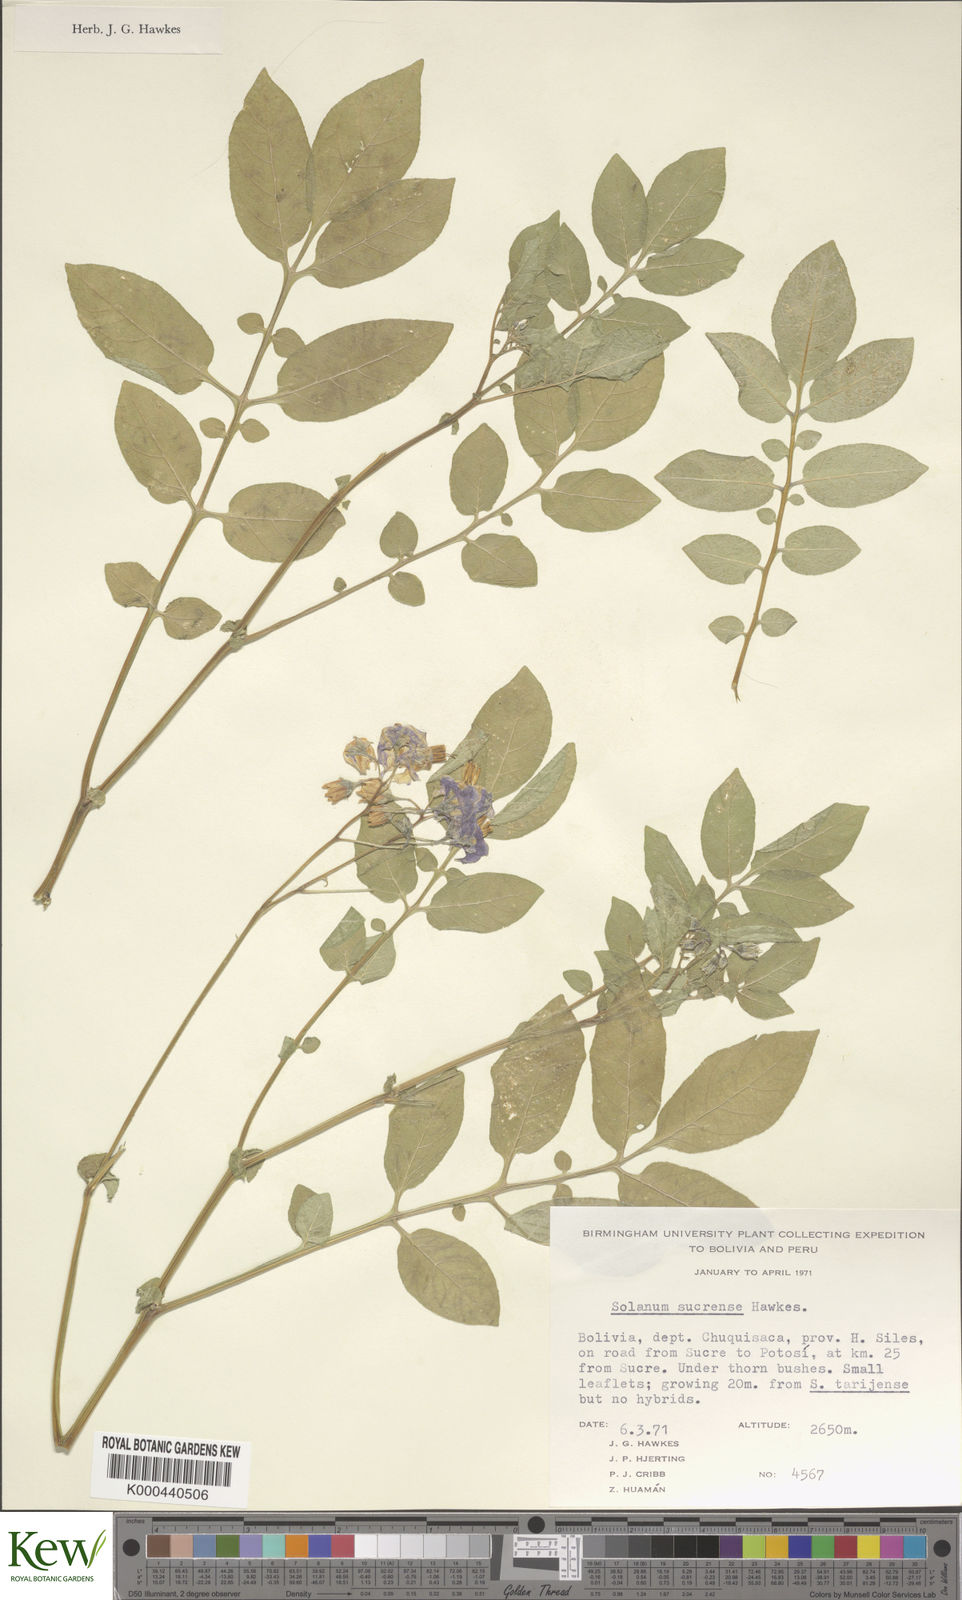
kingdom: Plantae
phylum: Tracheophyta
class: Magnoliopsida
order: Solanales
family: Solanaceae
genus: Solanum
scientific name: Solanum brevicaule
